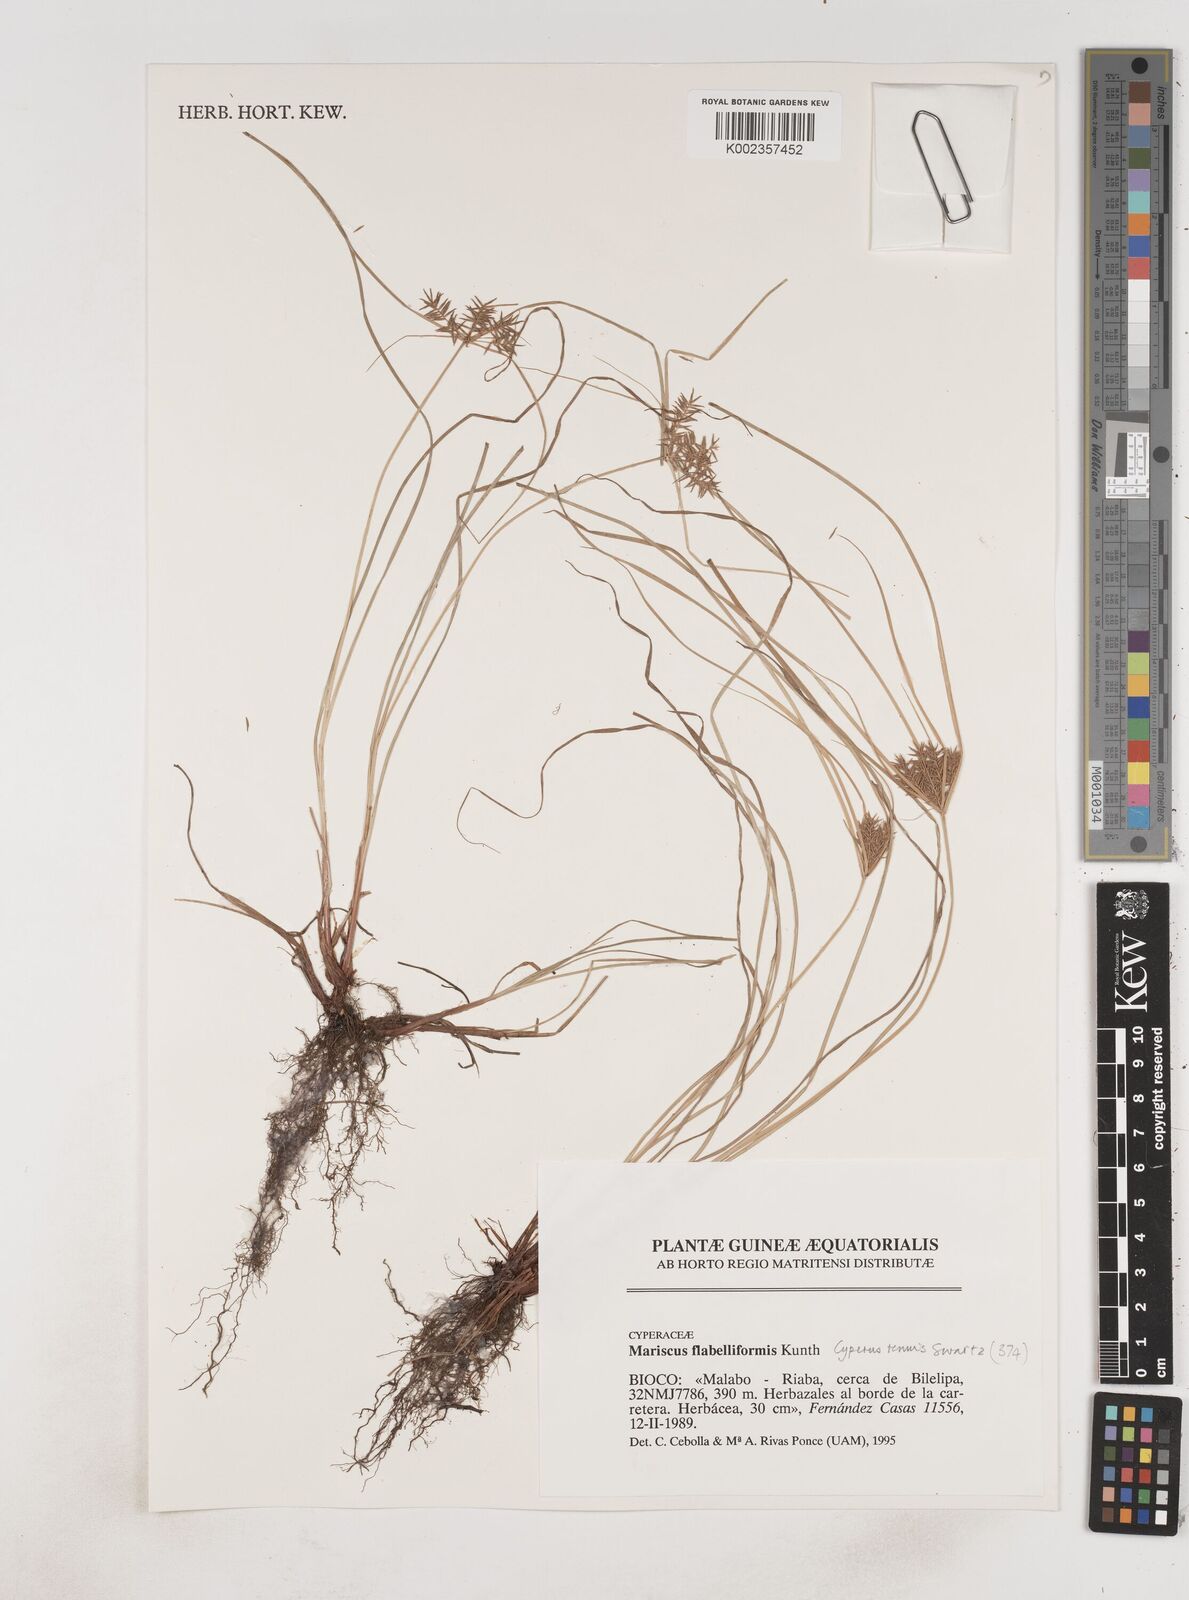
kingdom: Plantae
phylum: Tracheophyta
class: Liliopsida
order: Poales
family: Cyperaceae
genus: Cyperus
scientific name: Cyperus tenuis
